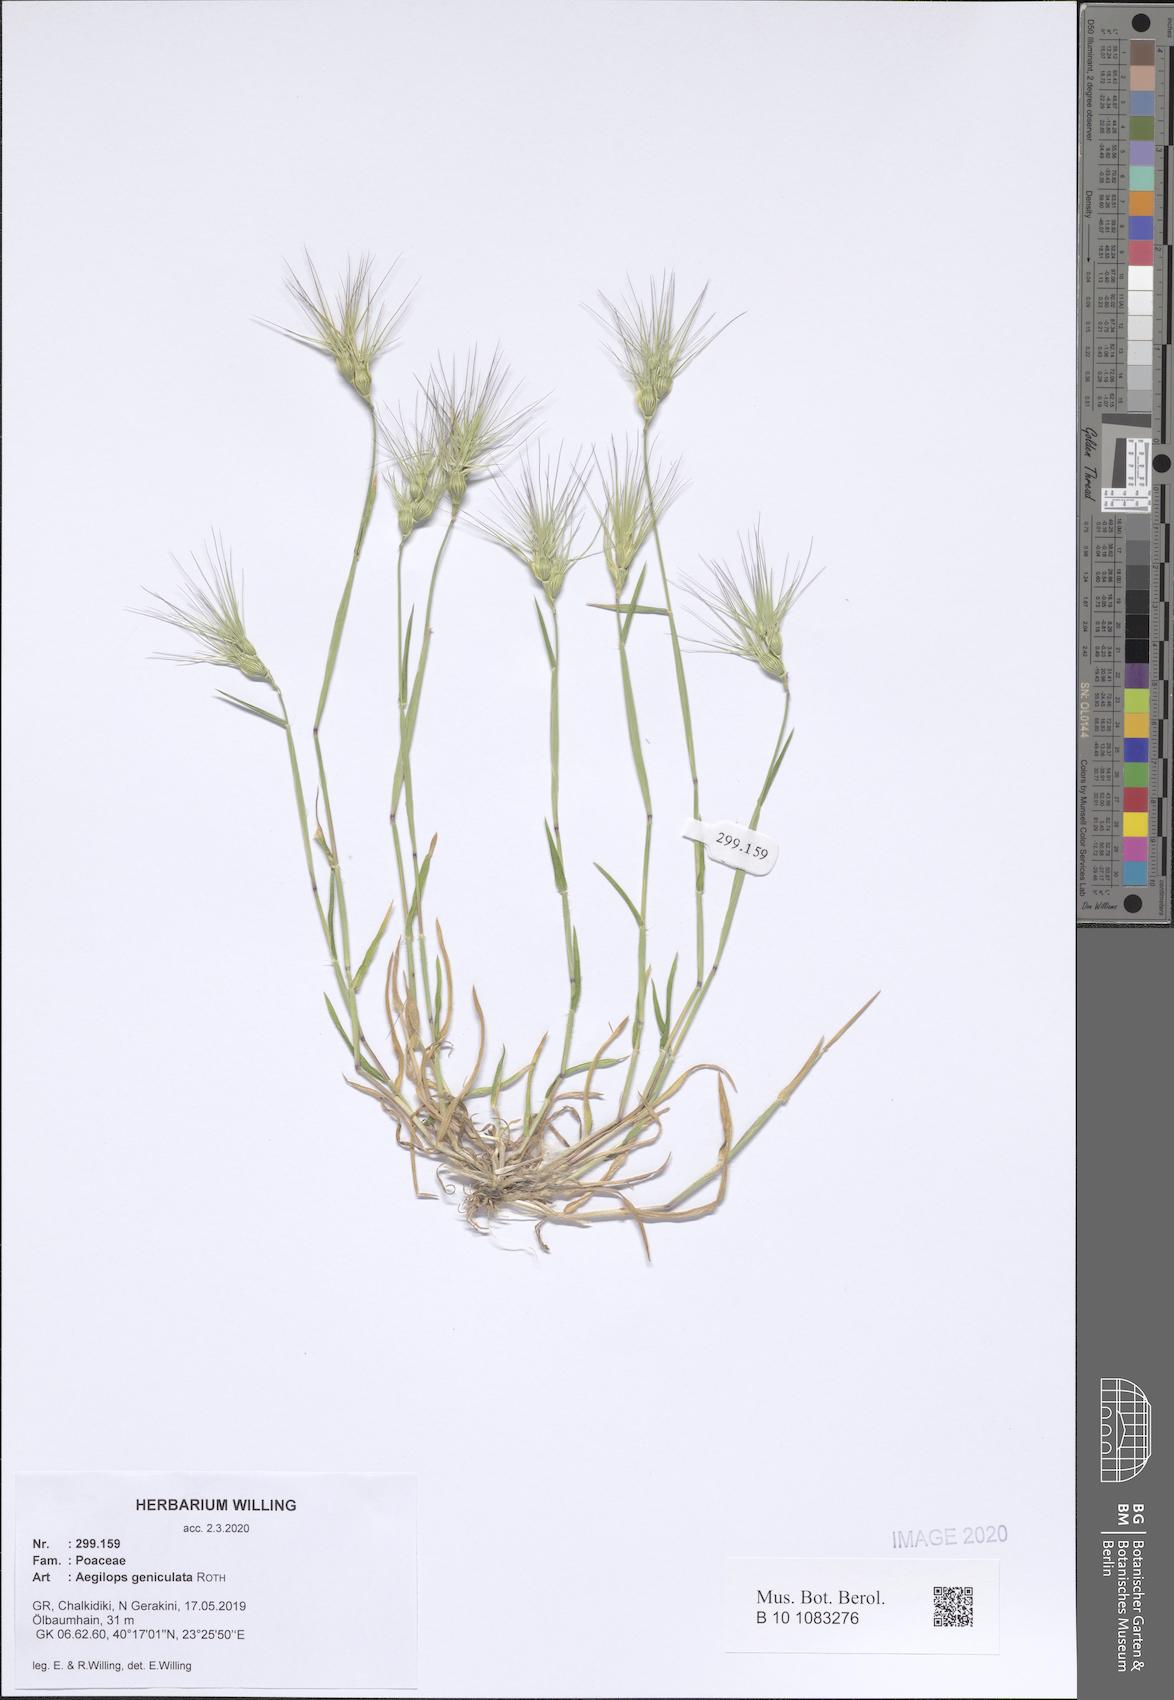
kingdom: Plantae
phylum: Tracheophyta
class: Liliopsida
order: Poales
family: Poaceae
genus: Aegilops
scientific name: Aegilops geniculata
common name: Ovate goat grass
